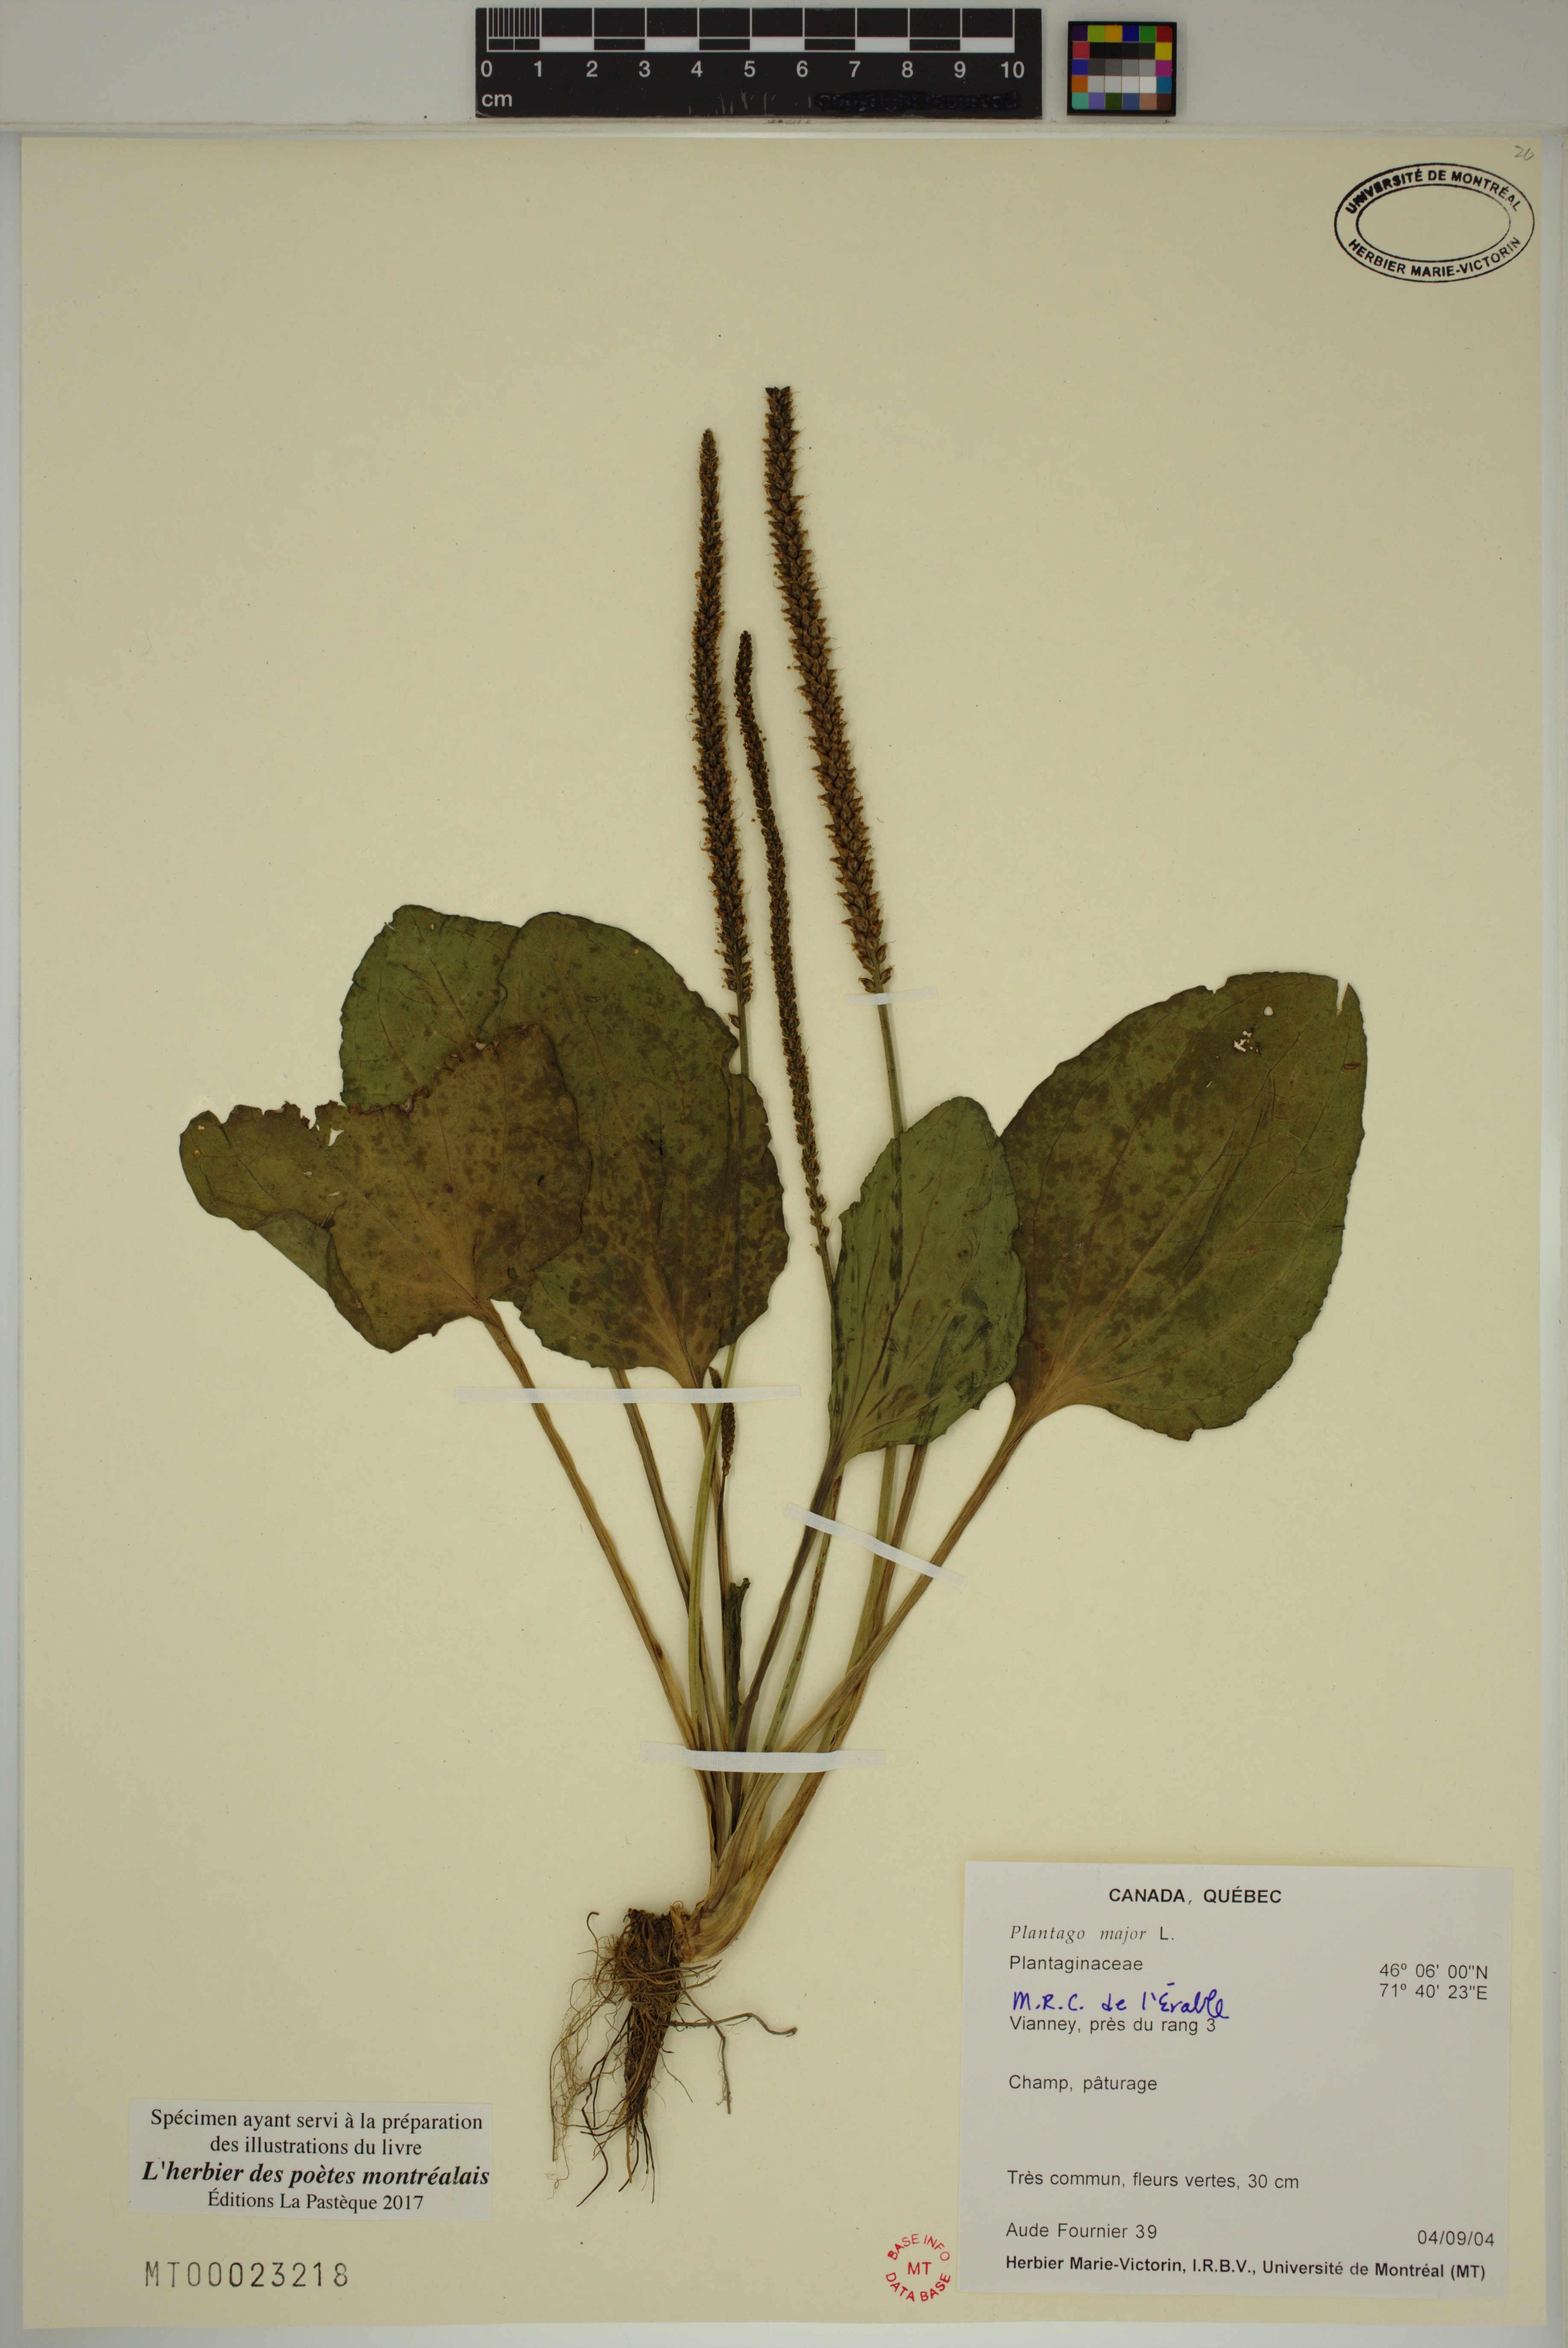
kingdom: Plantae
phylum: Tracheophyta
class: Magnoliopsida
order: Lamiales
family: Plantaginaceae
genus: Plantago
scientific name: Plantago major
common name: Common plantain
